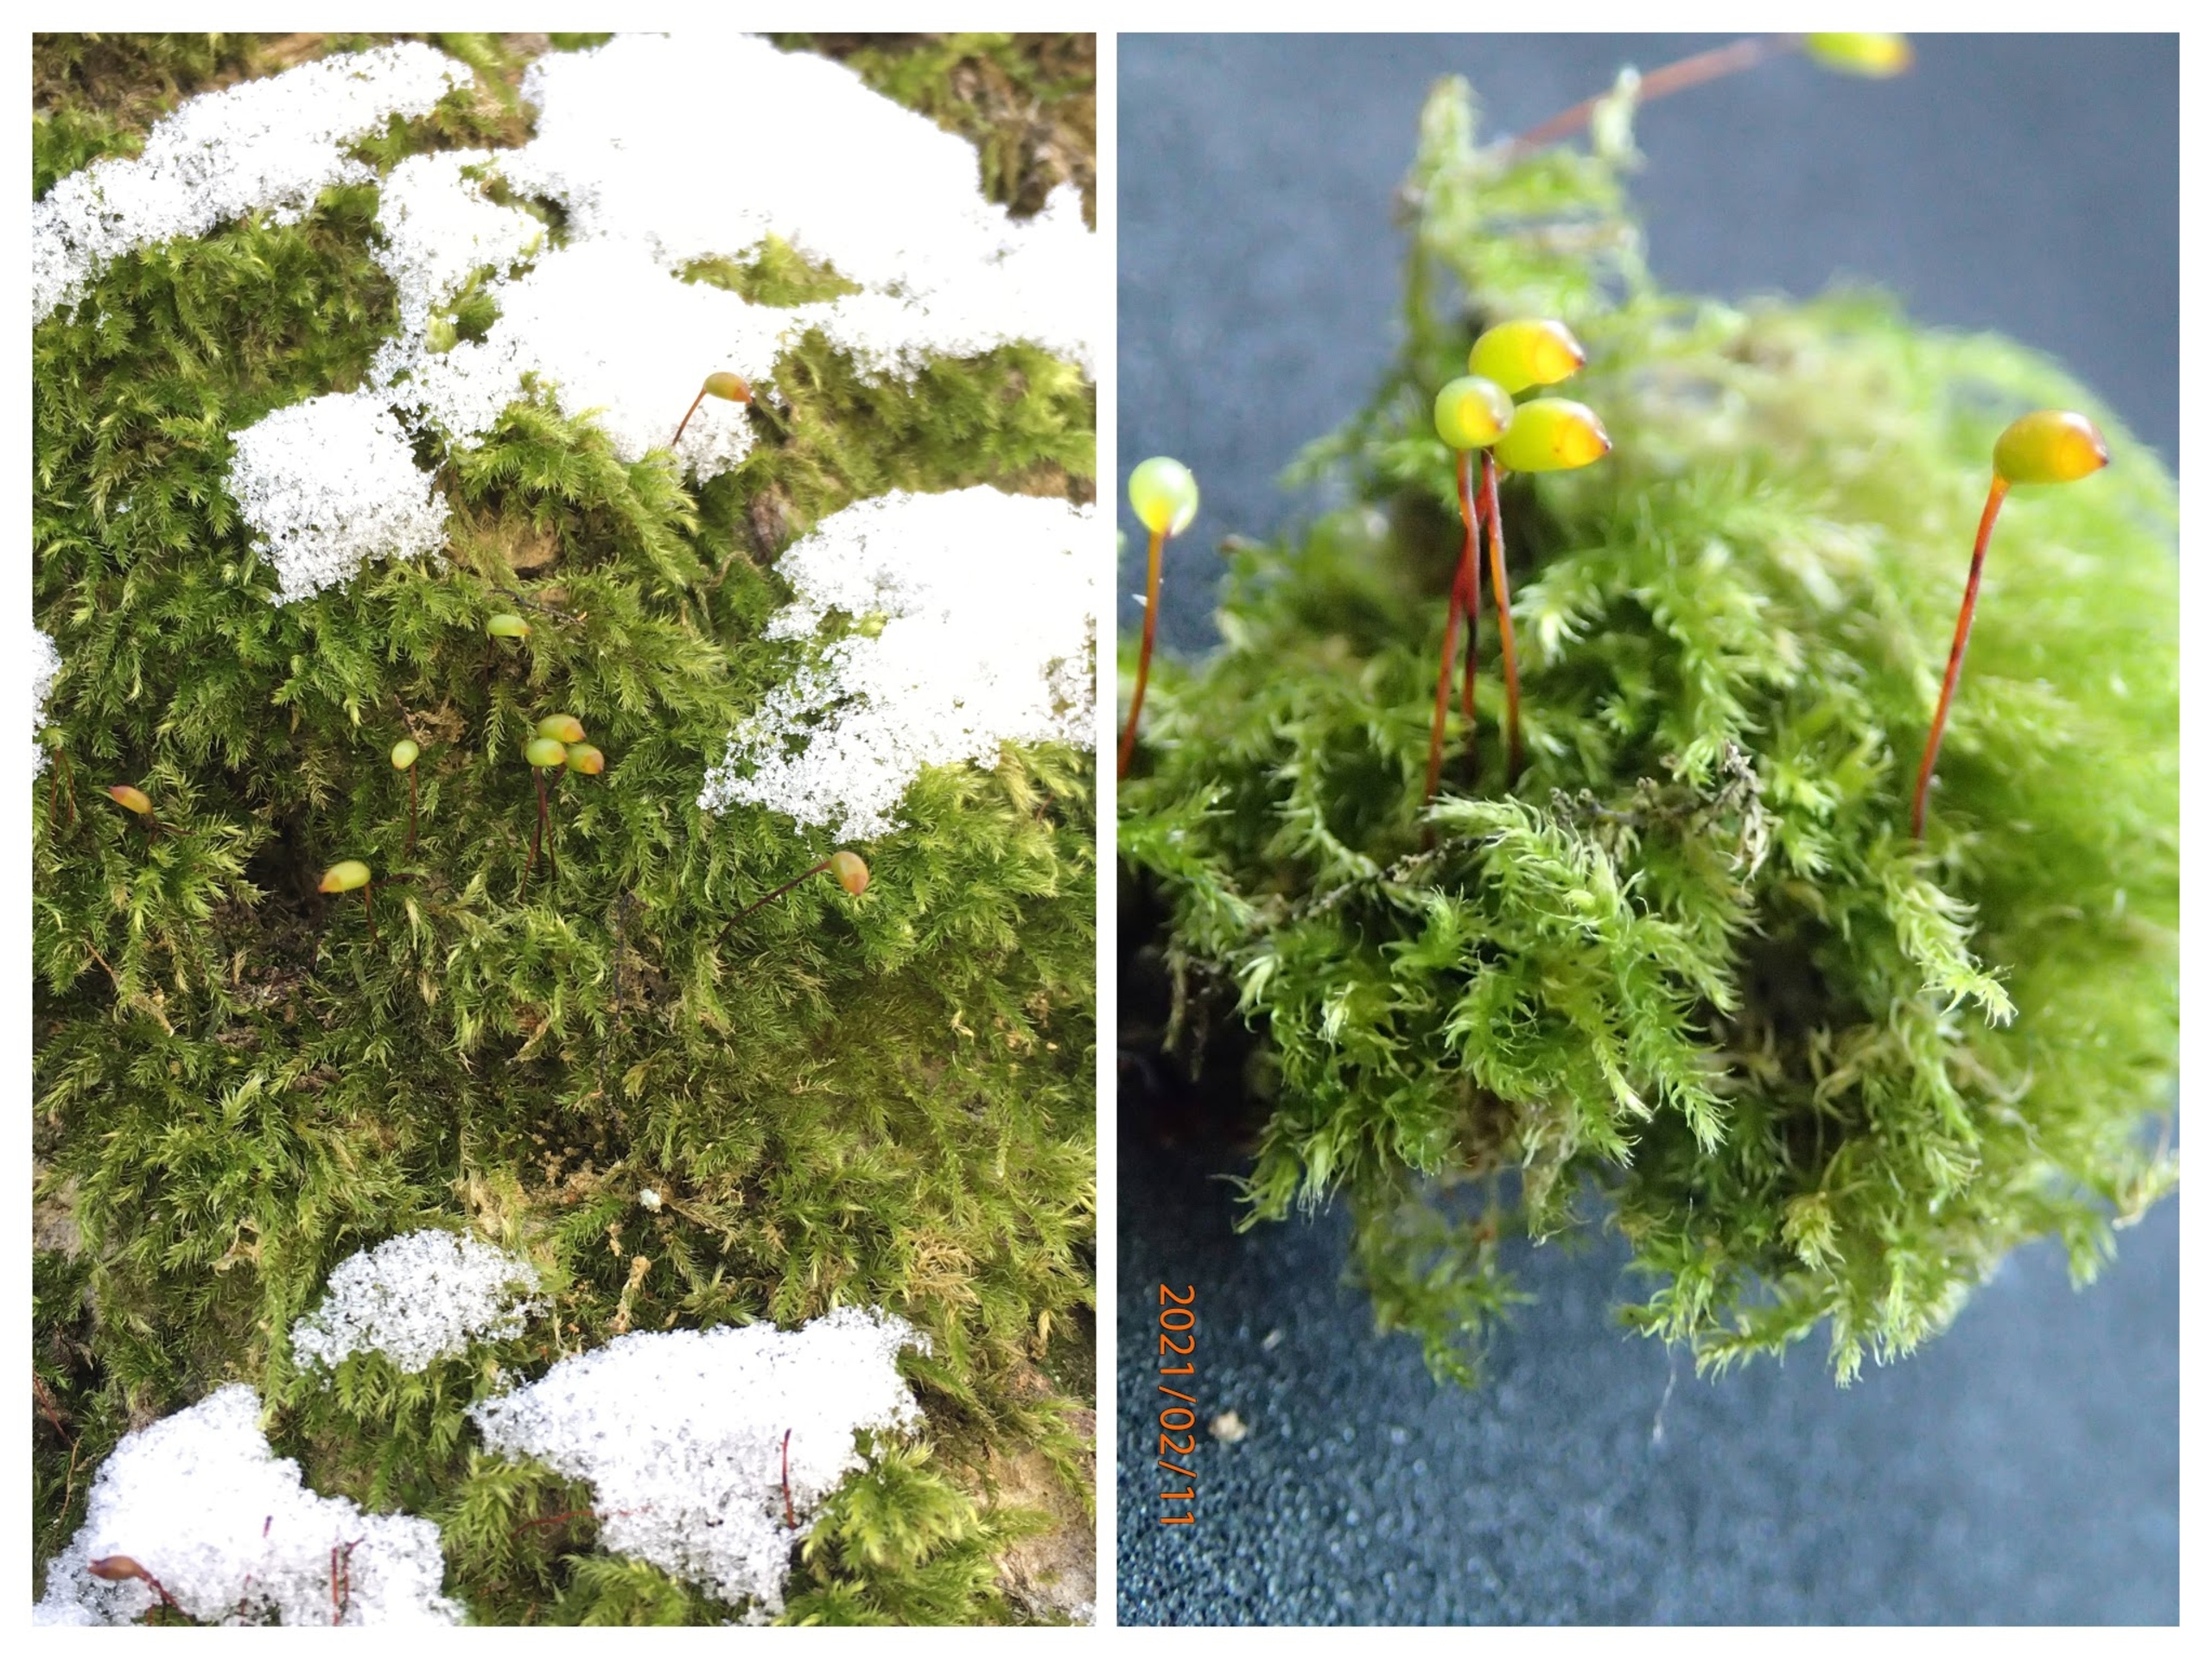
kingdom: Plantae
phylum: Bryophyta
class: Bryopsida
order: Hypnales
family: Brachytheciaceae
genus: Brachytheciastrum
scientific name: Brachytheciastrum velutinum
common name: Fløjls-kortkapsel
